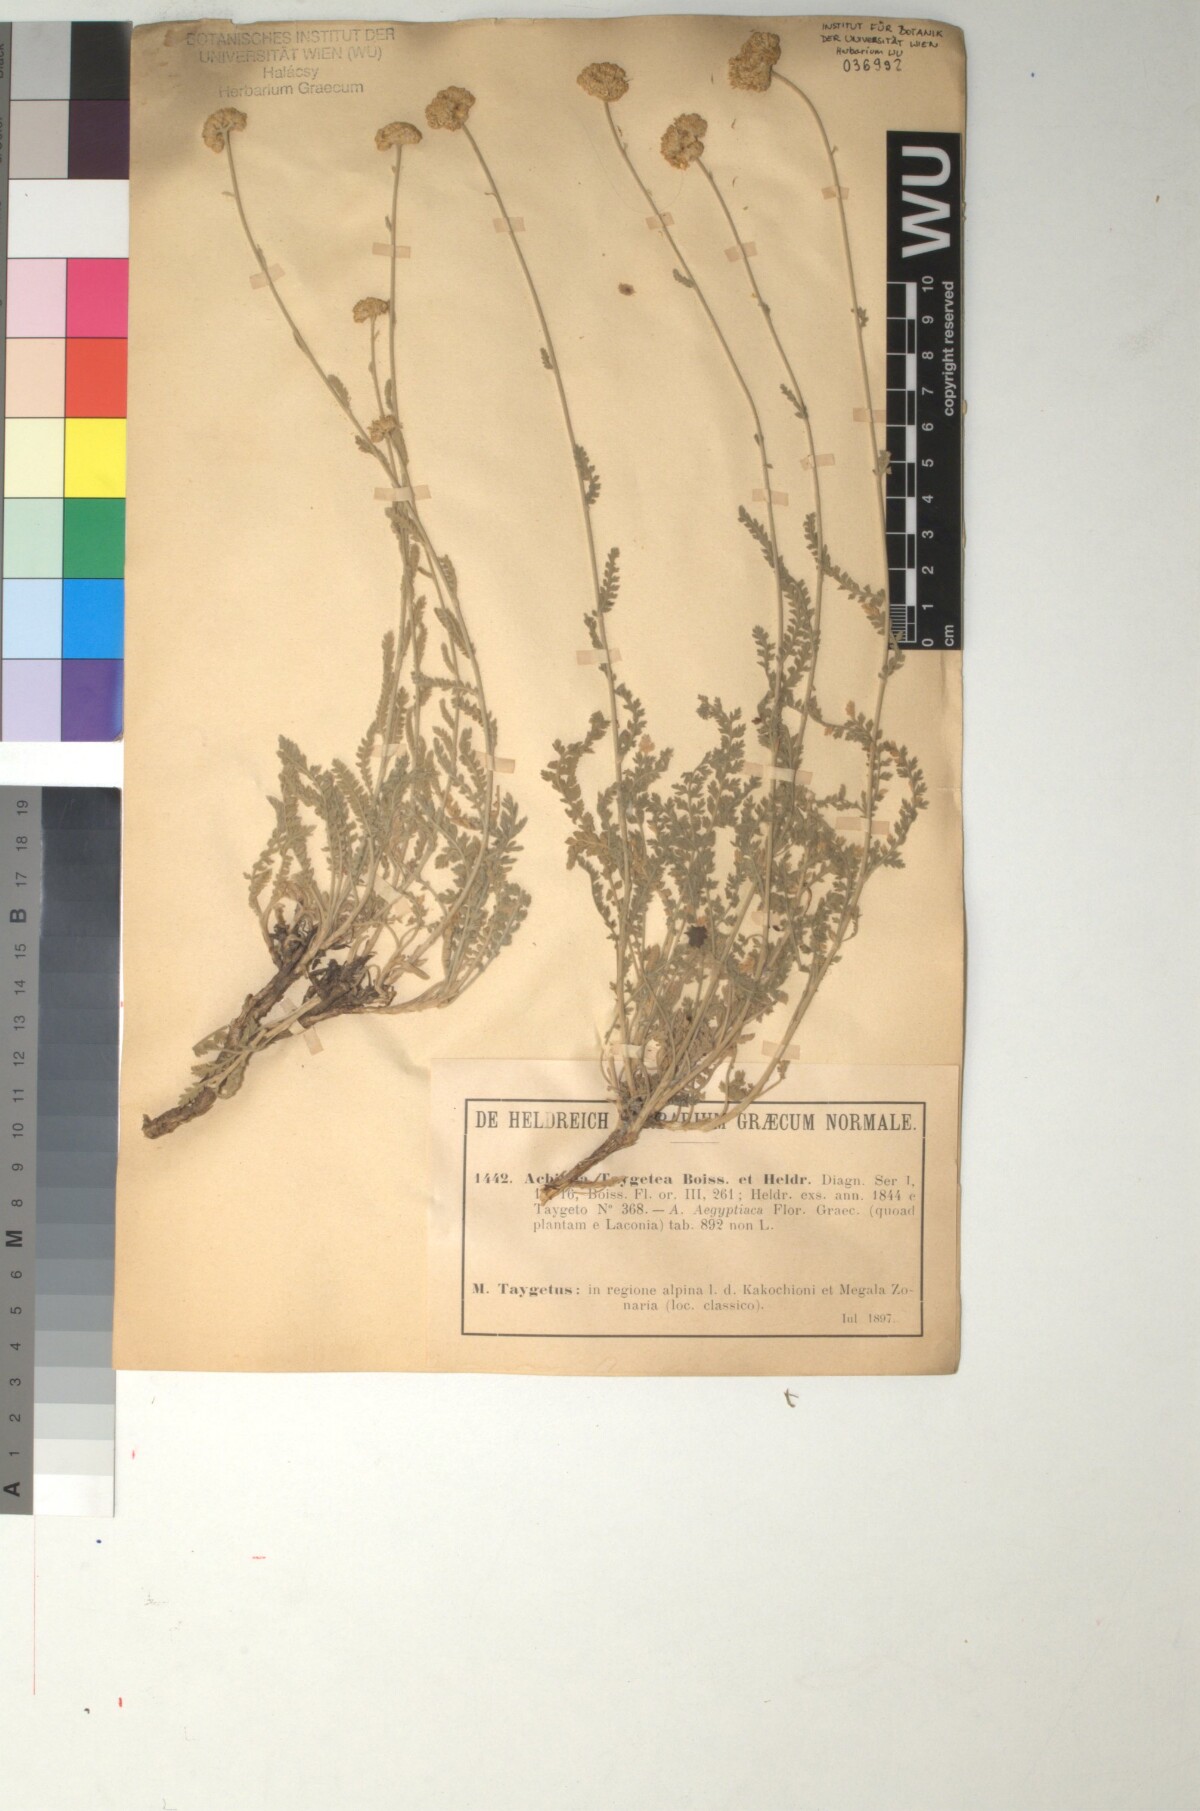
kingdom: Plantae
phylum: Tracheophyta
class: Magnoliopsida
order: Asterales
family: Asteraceae
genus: Achillea
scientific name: Achillea taygetea
